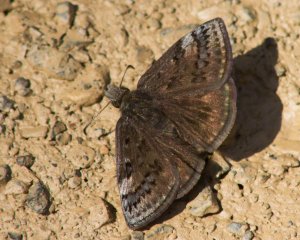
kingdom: Animalia
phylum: Arthropoda
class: Insecta
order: Lepidoptera
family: Hesperiidae
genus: Erynnis
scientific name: Erynnis brizo
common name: Sleepy Duskywing
